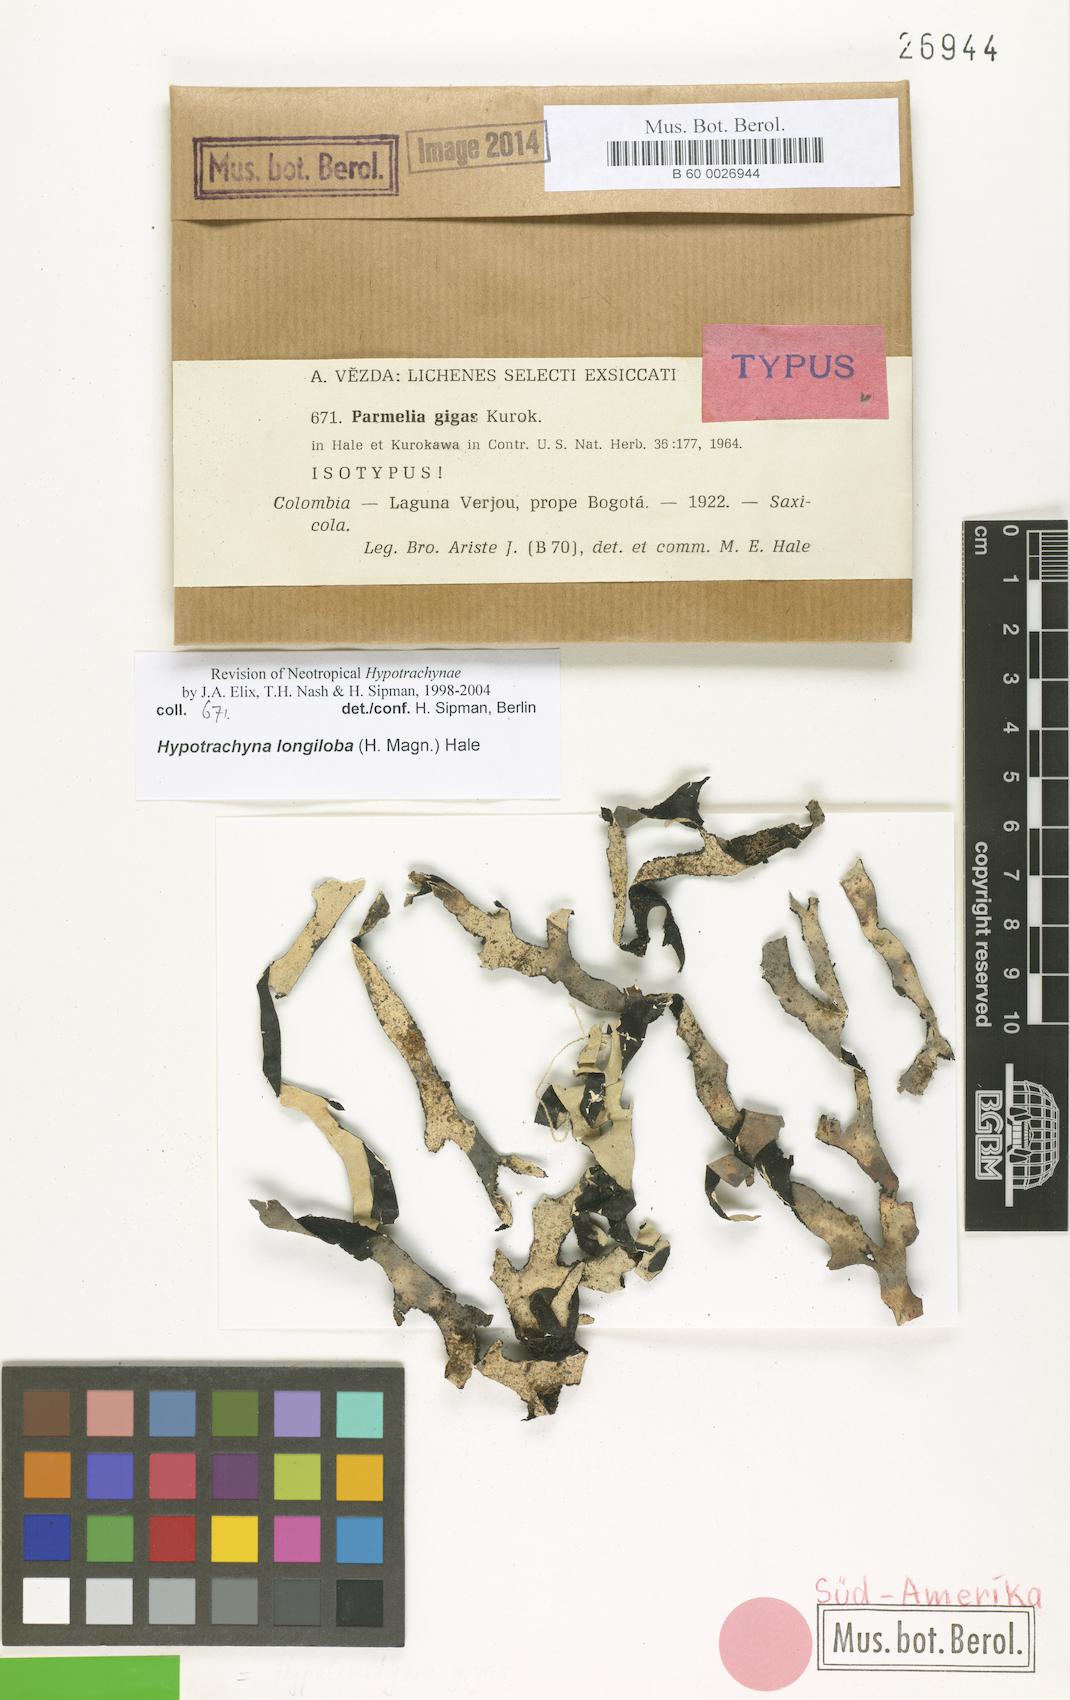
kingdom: Fungi
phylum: Ascomycota
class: Lecanoromycetes
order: Lecanorales
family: Parmeliaceae
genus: Hypotrachyna
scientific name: Hypotrachyna gigas
